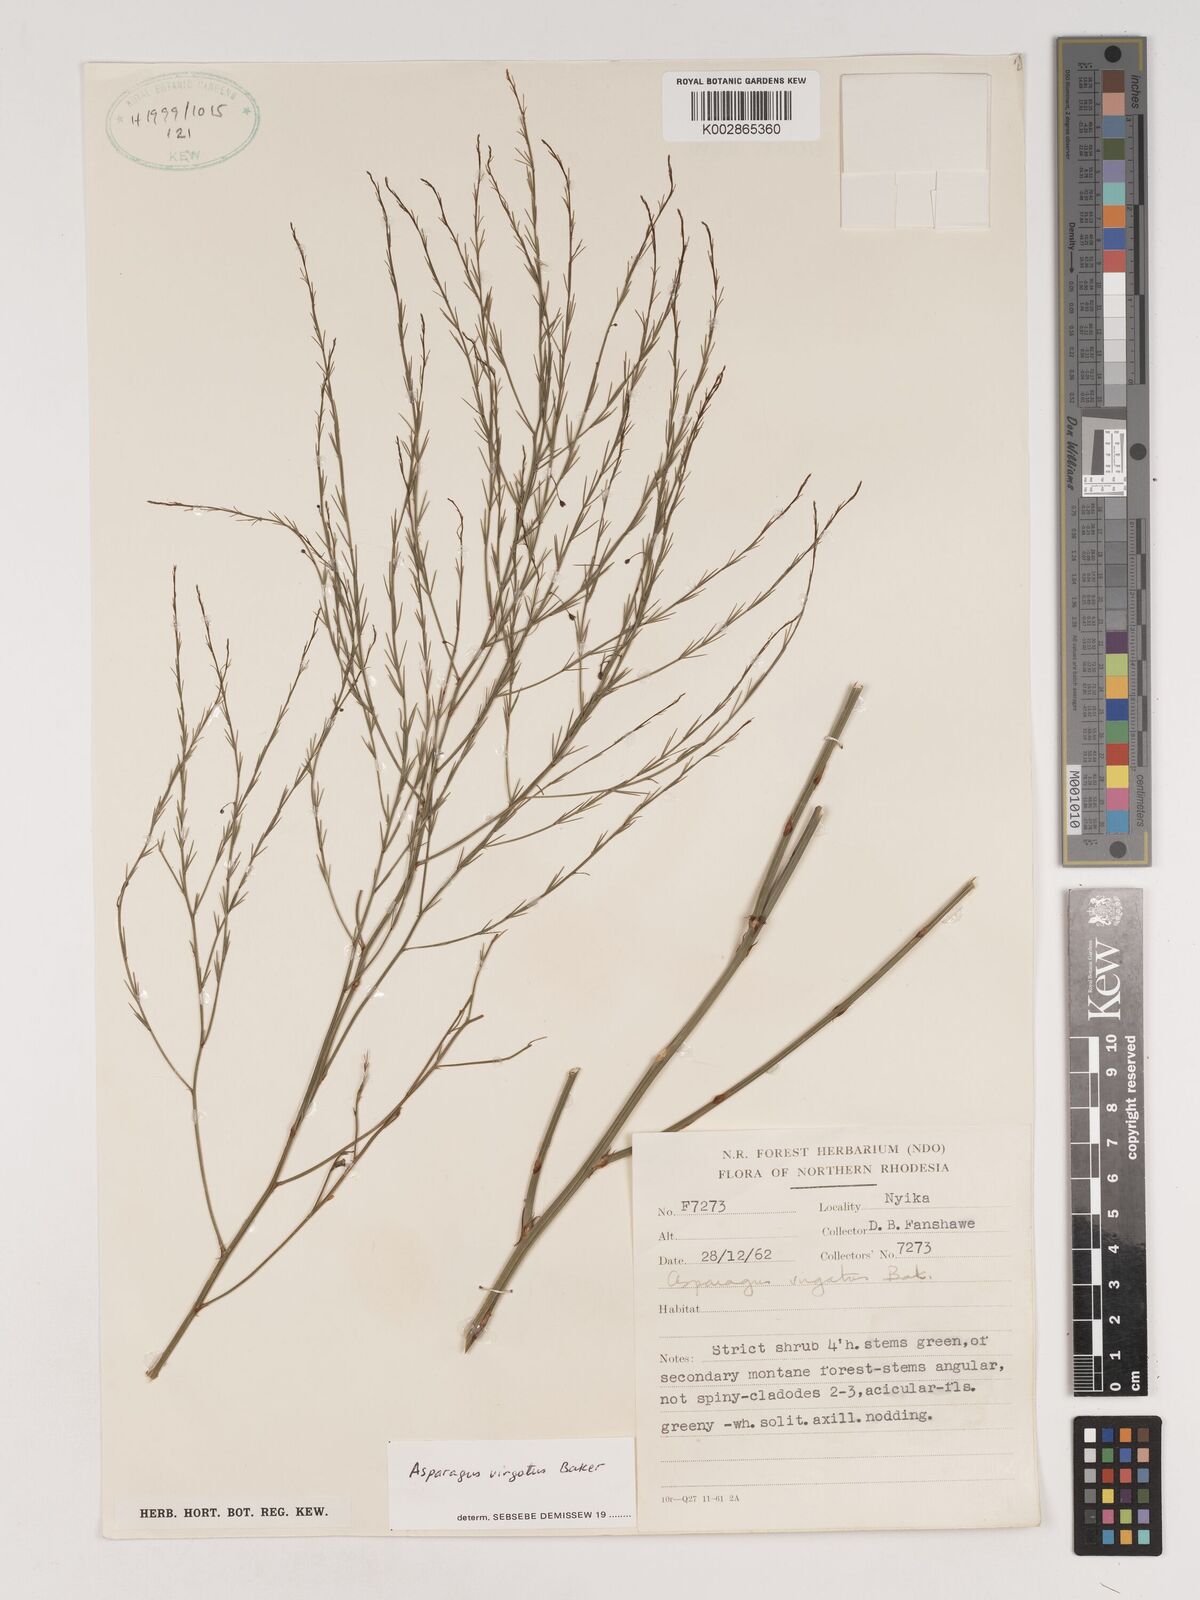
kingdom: Plantae
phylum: Tracheophyta
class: Liliopsida
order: Asparagales
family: Asparagaceae
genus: Asparagus
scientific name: Asparagus virgatus
